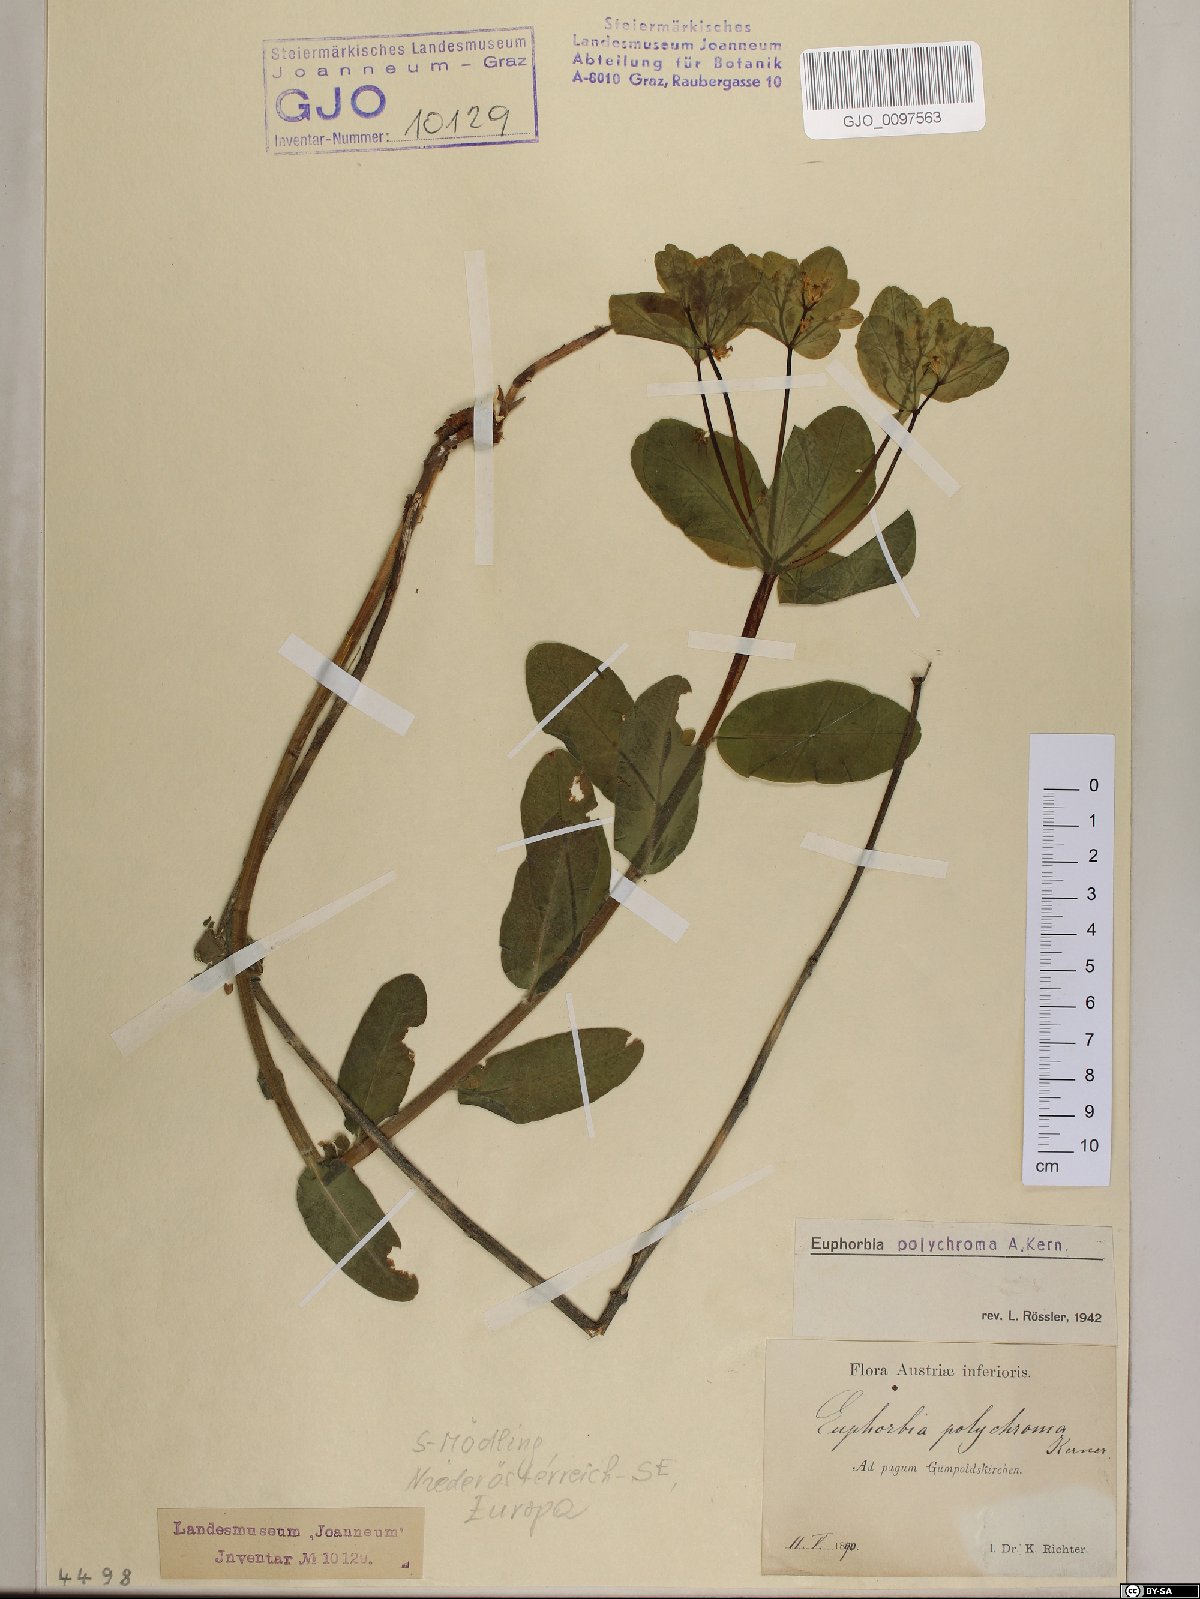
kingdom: Plantae
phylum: Tracheophyta
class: Magnoliopsida
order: Malpighiales
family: Euphorbiaceae
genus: Euphorbia
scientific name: Euphorbia epithymoides
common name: Cushion spurge
